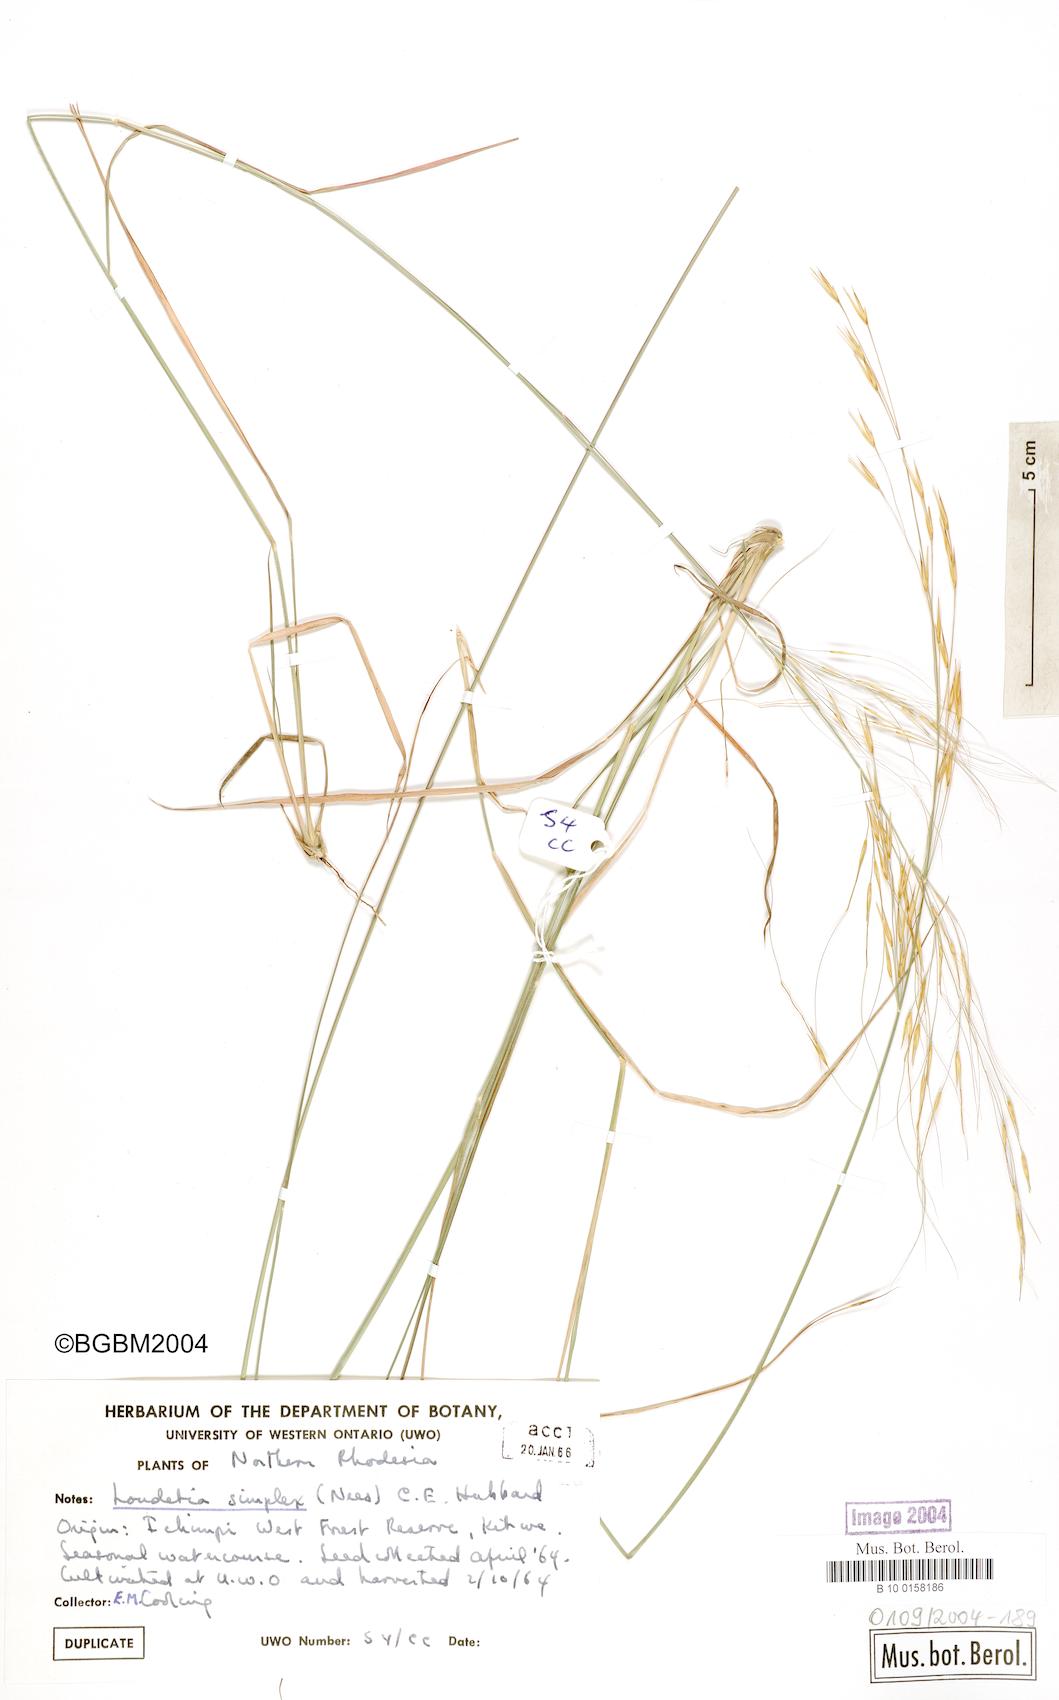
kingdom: Plantae
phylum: Tracheophyta
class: Liliopsida
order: Poales
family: Poaceae
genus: Loudetia
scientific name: Loudetia simplex
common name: Common russet grass
